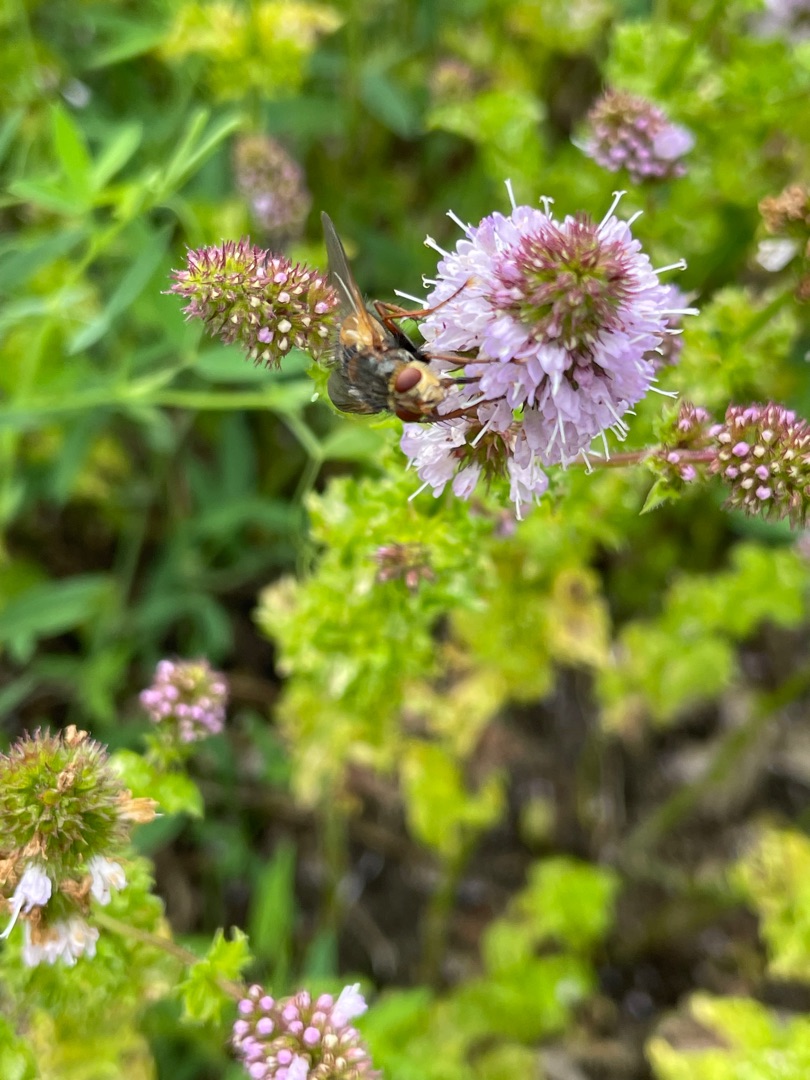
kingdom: Animalia
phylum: Arthropoda
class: Insecta
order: Diptera
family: Tachinidae
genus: Tachina
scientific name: Tachina fera
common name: Mellemfluen oskar
